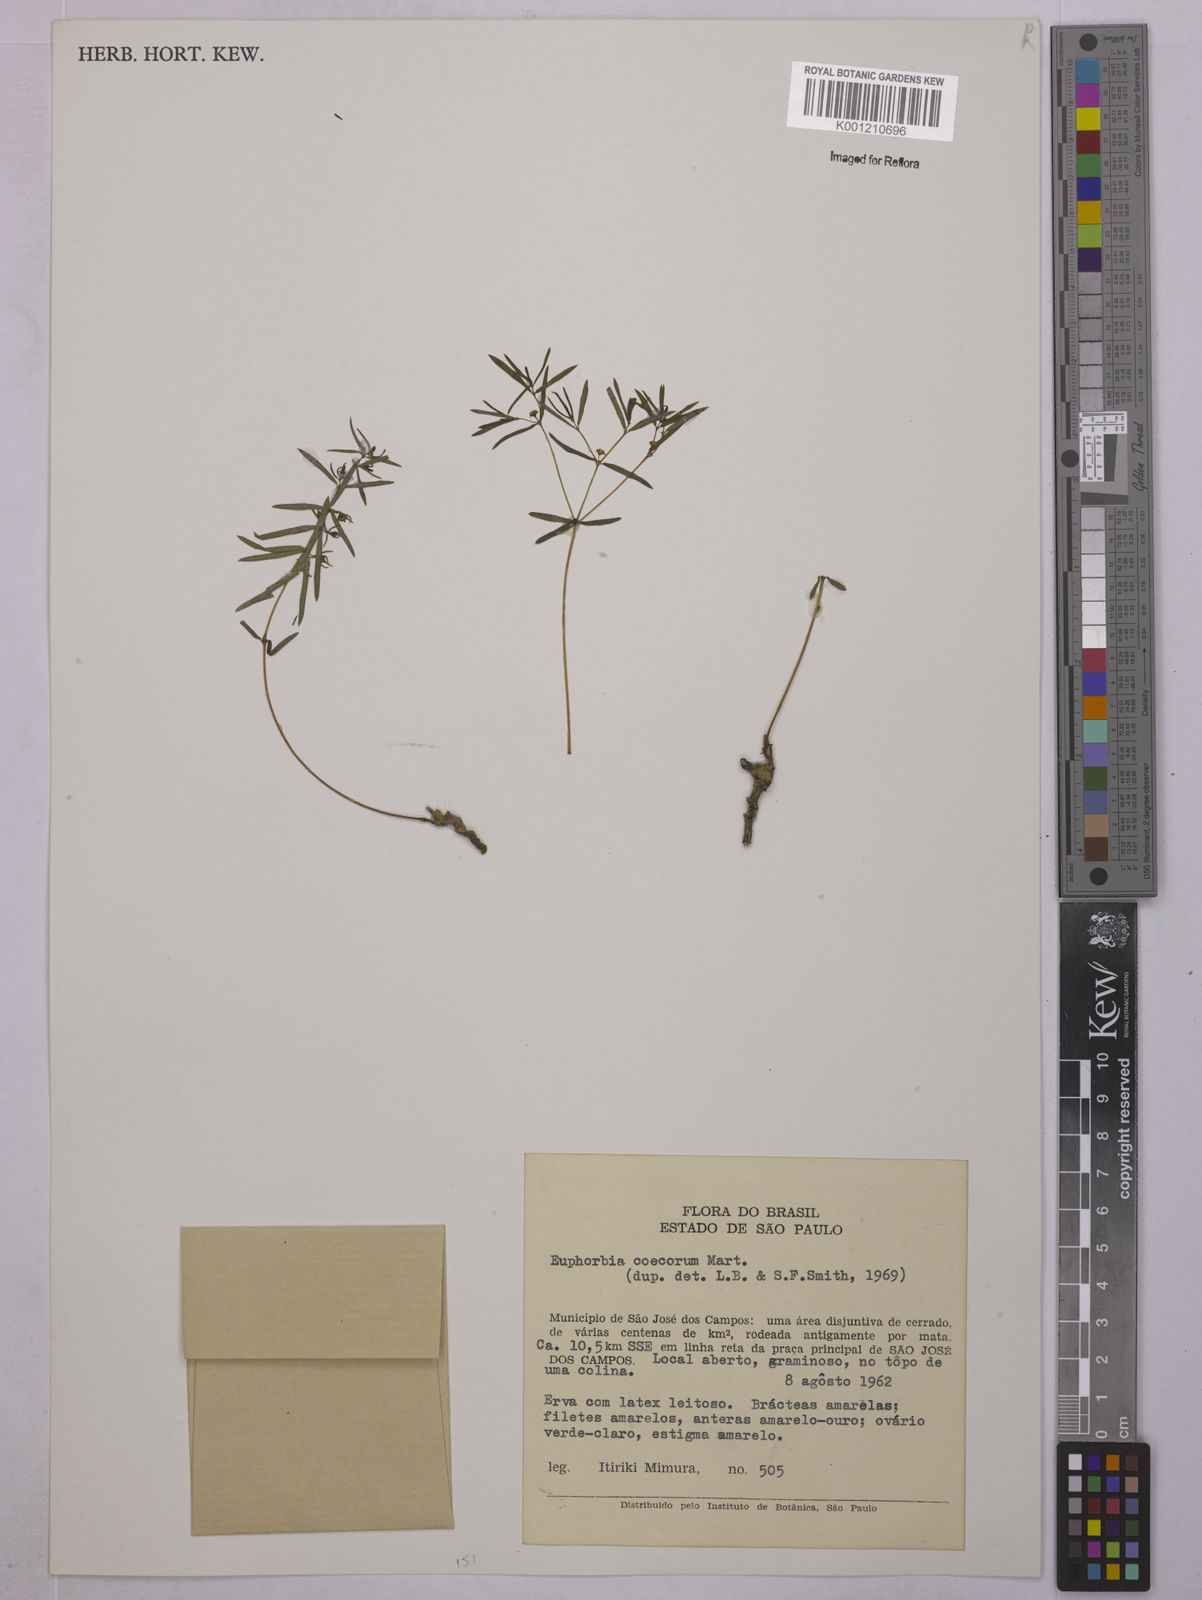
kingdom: Plantae
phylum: Tracheophyta
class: Magnoliopsida
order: Malpighiales
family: Euphorbiaceae
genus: Euphorbia
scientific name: Euphorbia potentilloides
